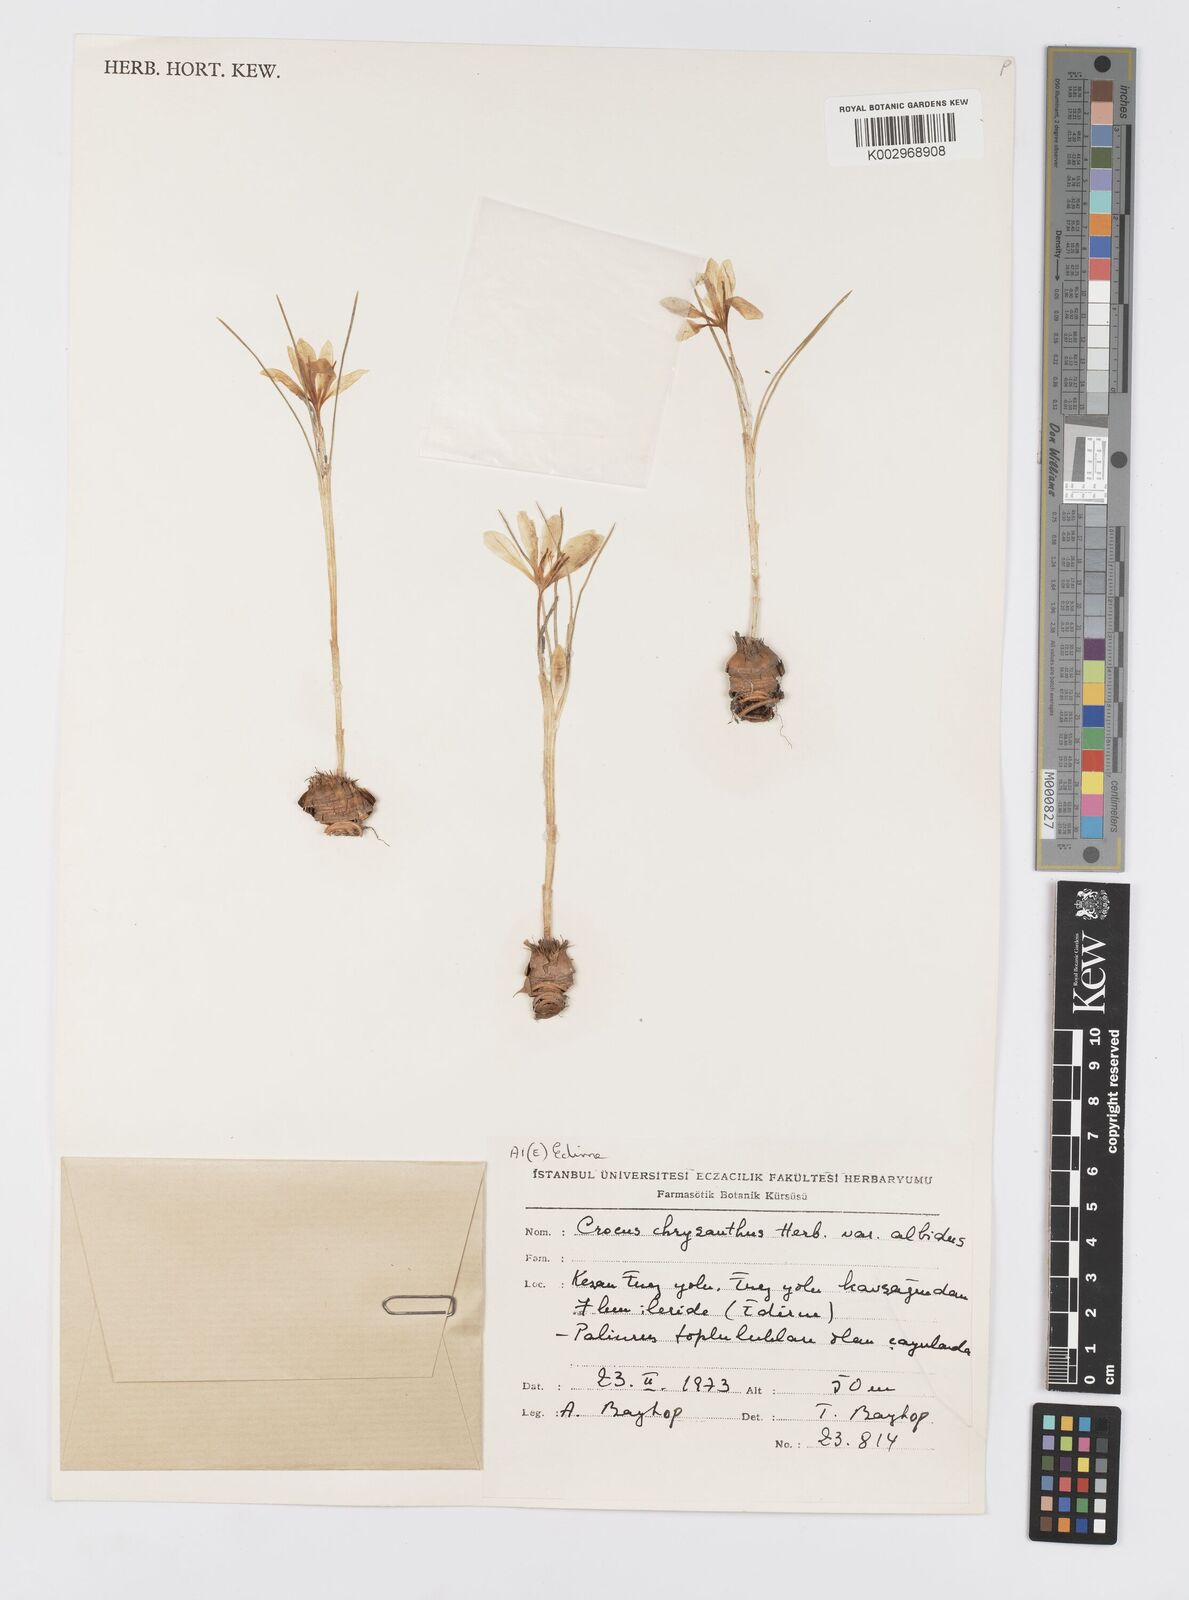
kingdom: Plantae
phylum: Tracheophyta
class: Liliopsida
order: Asparagales
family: Iridaceae
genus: Crocus
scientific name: Crocus chrysanthus
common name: Golden crocus
